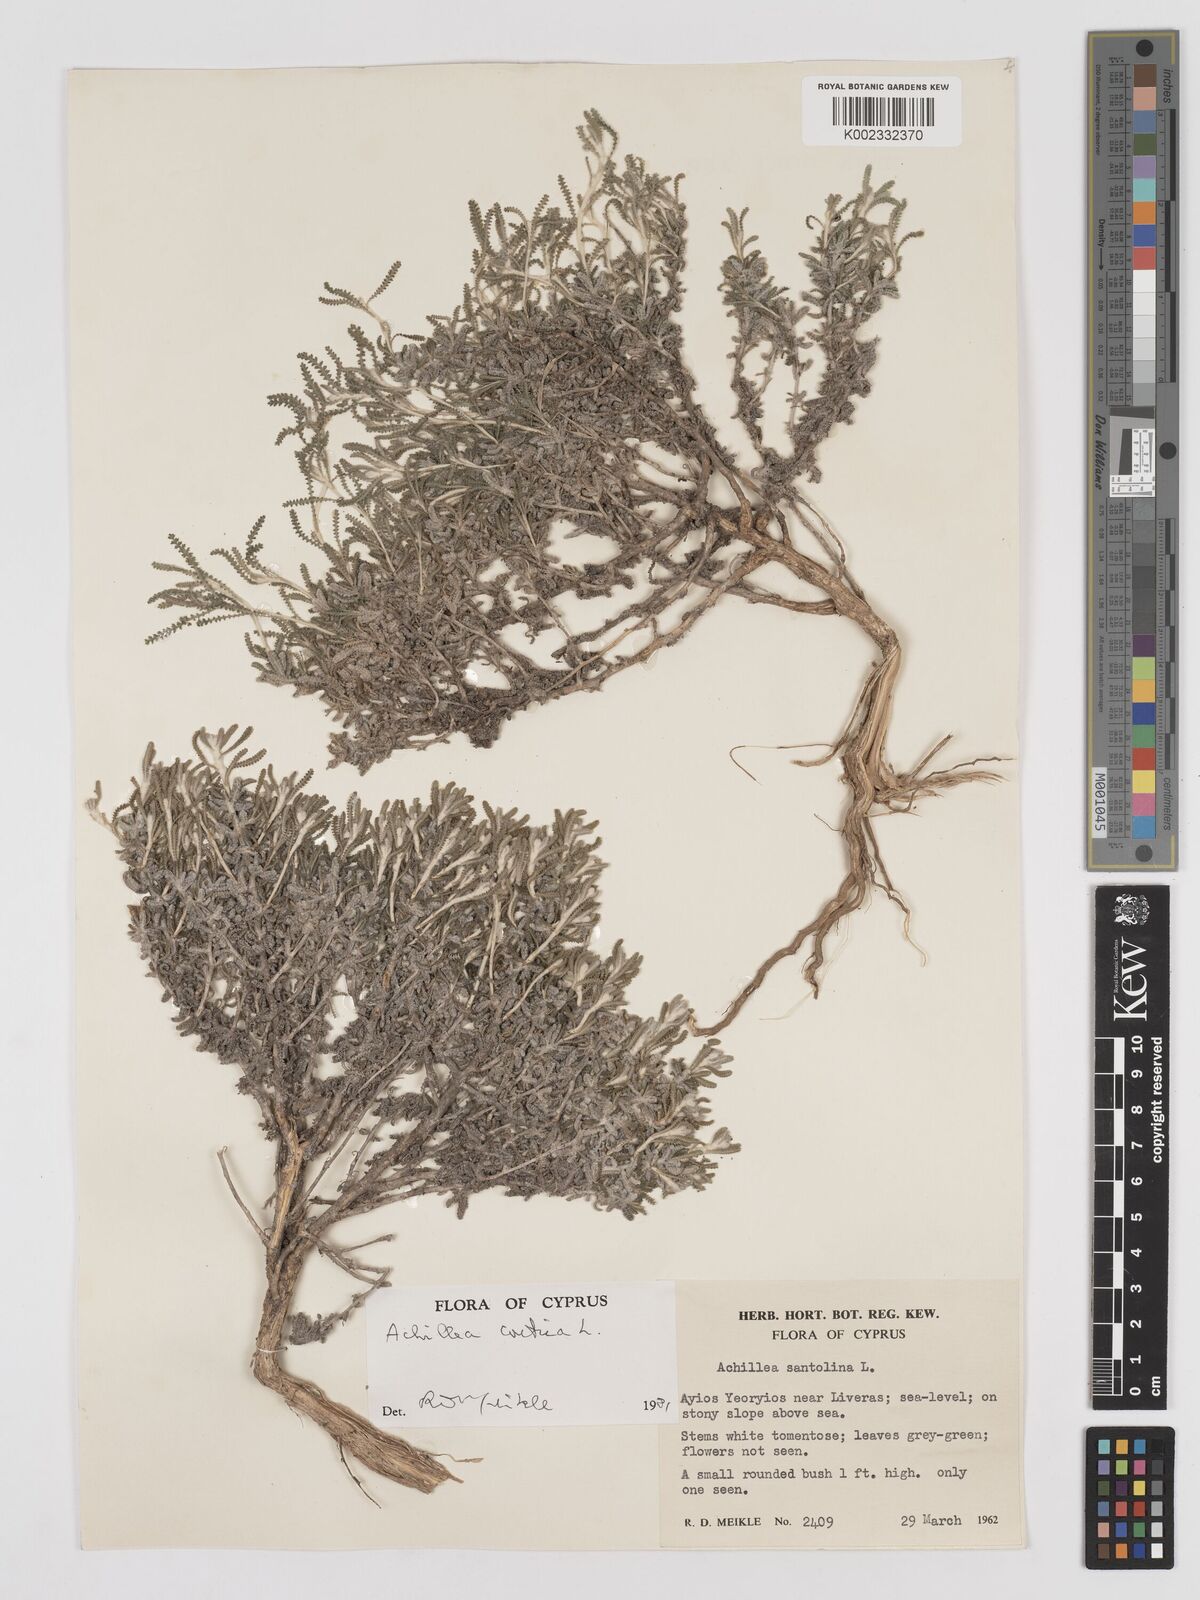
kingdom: Plantae
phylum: Tracheophyta
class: Magnoliopsida
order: Asterales
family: Asteraceae
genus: Achillea
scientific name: Achillea cretica
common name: Chamomile-leaved lavender-cotton
